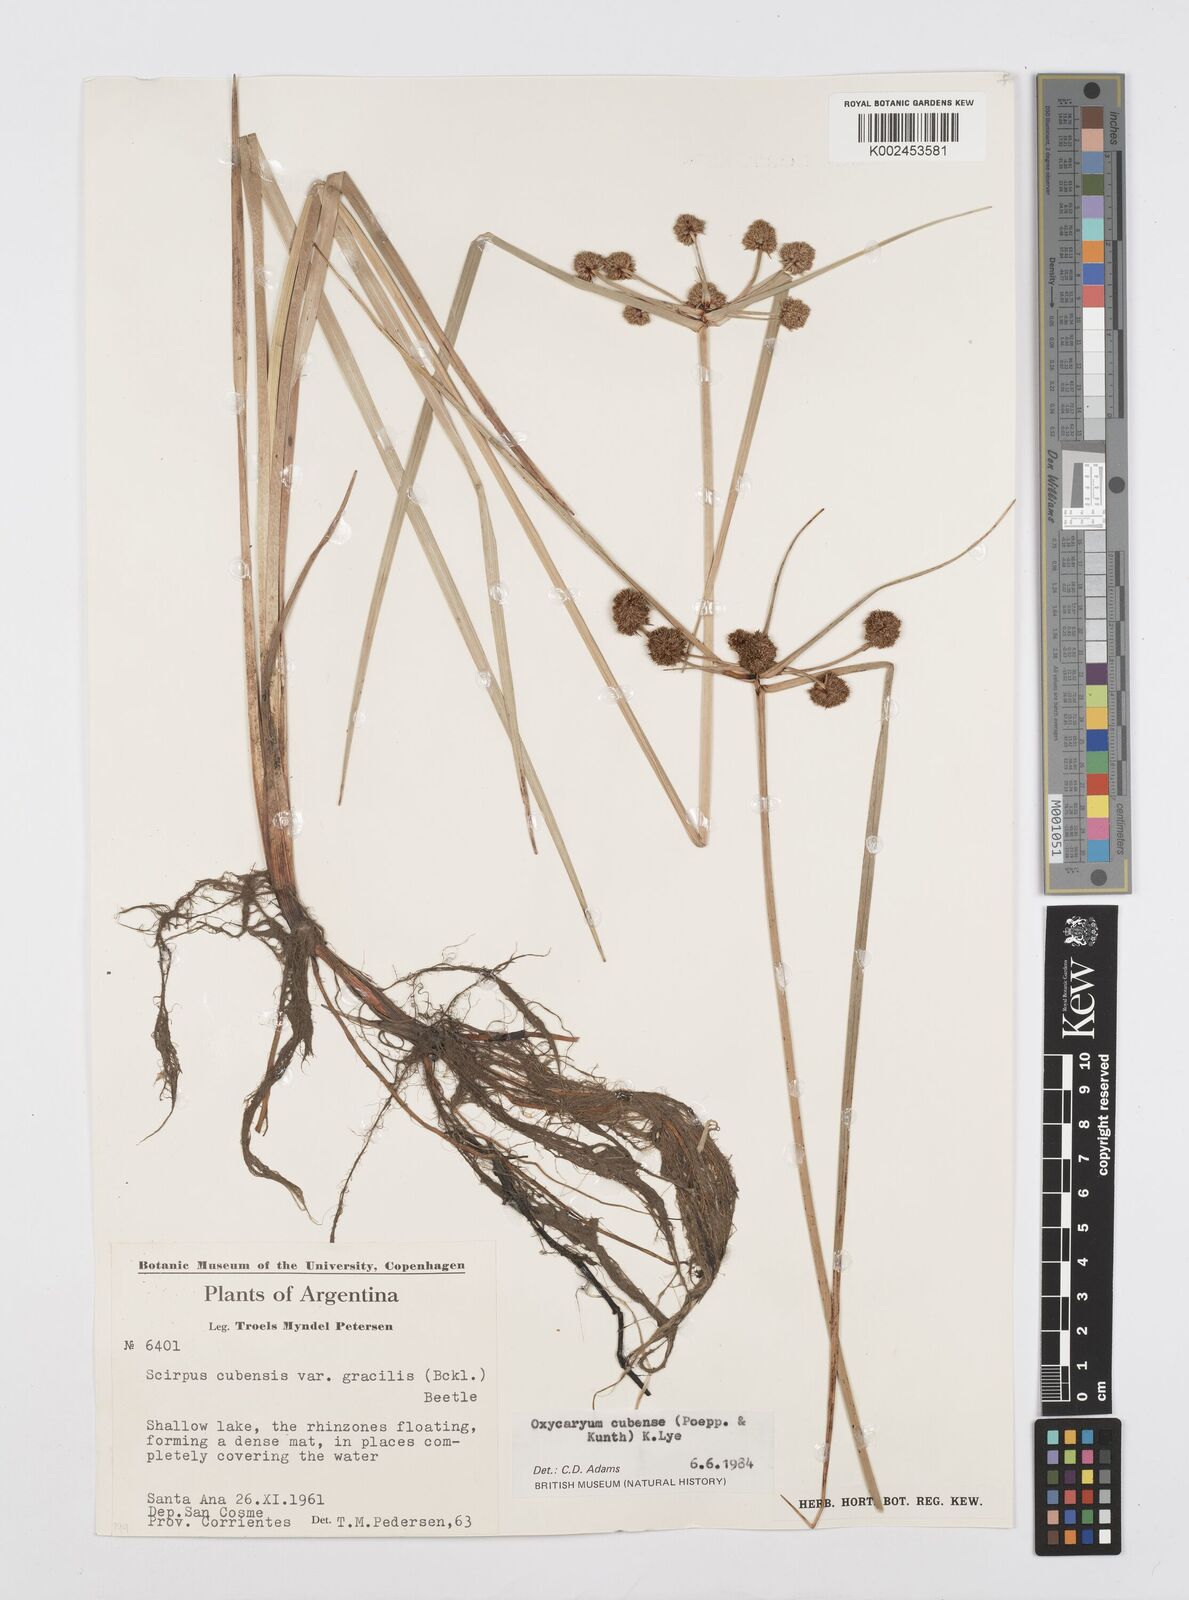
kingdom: Plantae
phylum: Tracheophyta
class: Liliopsida
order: Poales
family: Cyperaceae
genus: Cyperus
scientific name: Cyperus elegans
